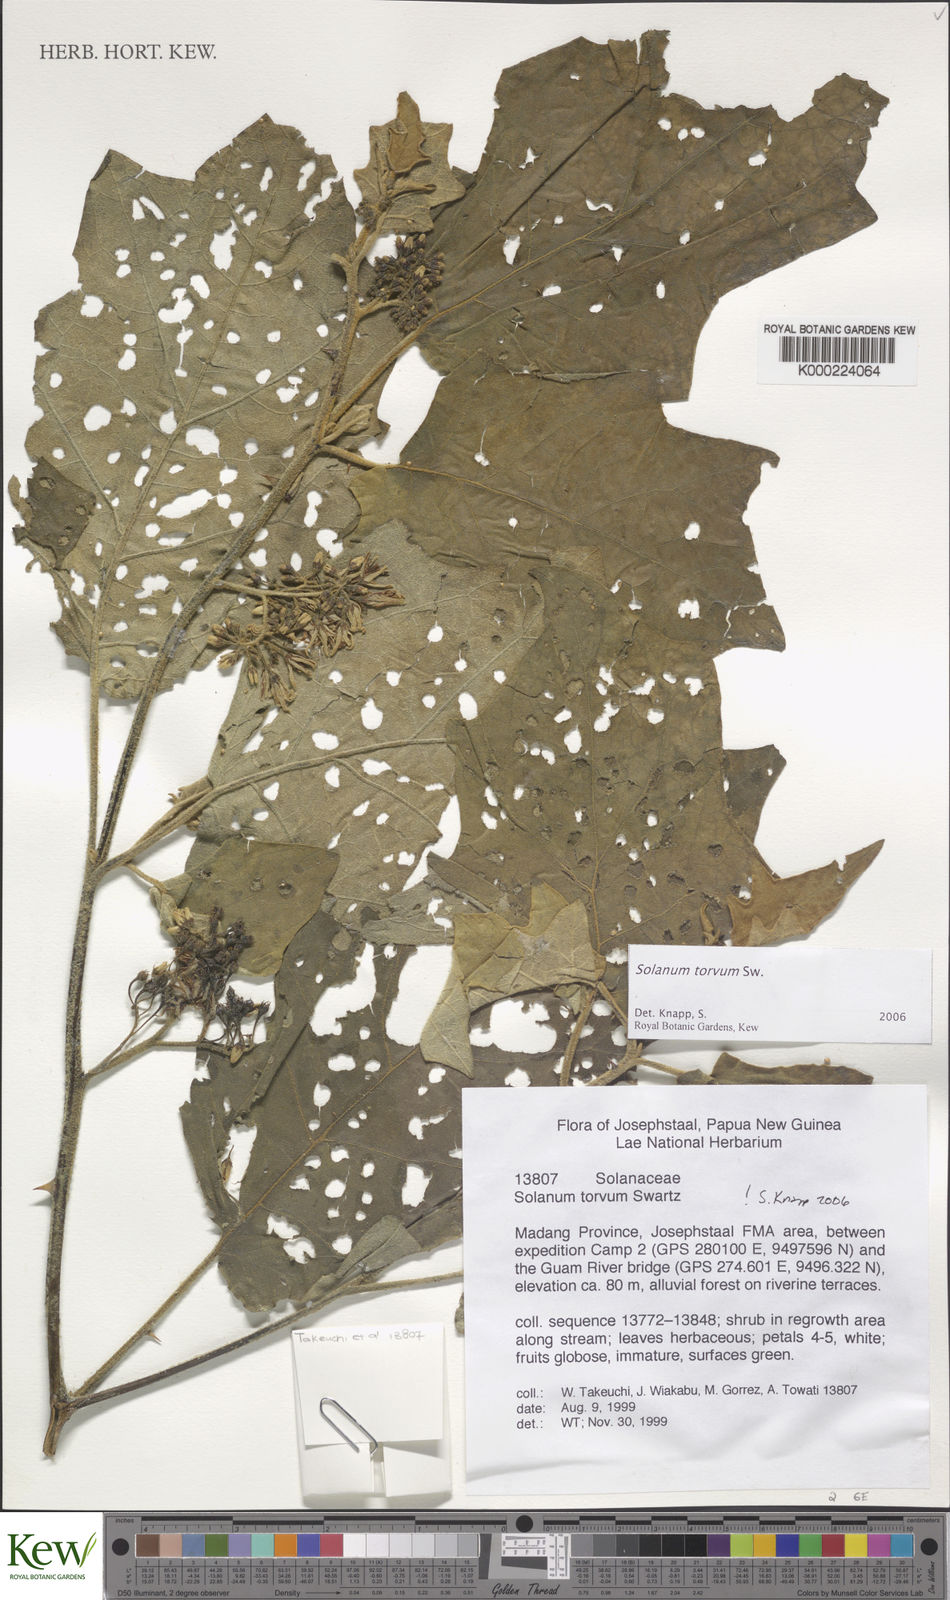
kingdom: Plantae
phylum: Tracheophyta
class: Magnoliopsida
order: Solanales
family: Solanaceae
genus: Solanum
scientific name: Solanum torvum
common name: Turkey berry
